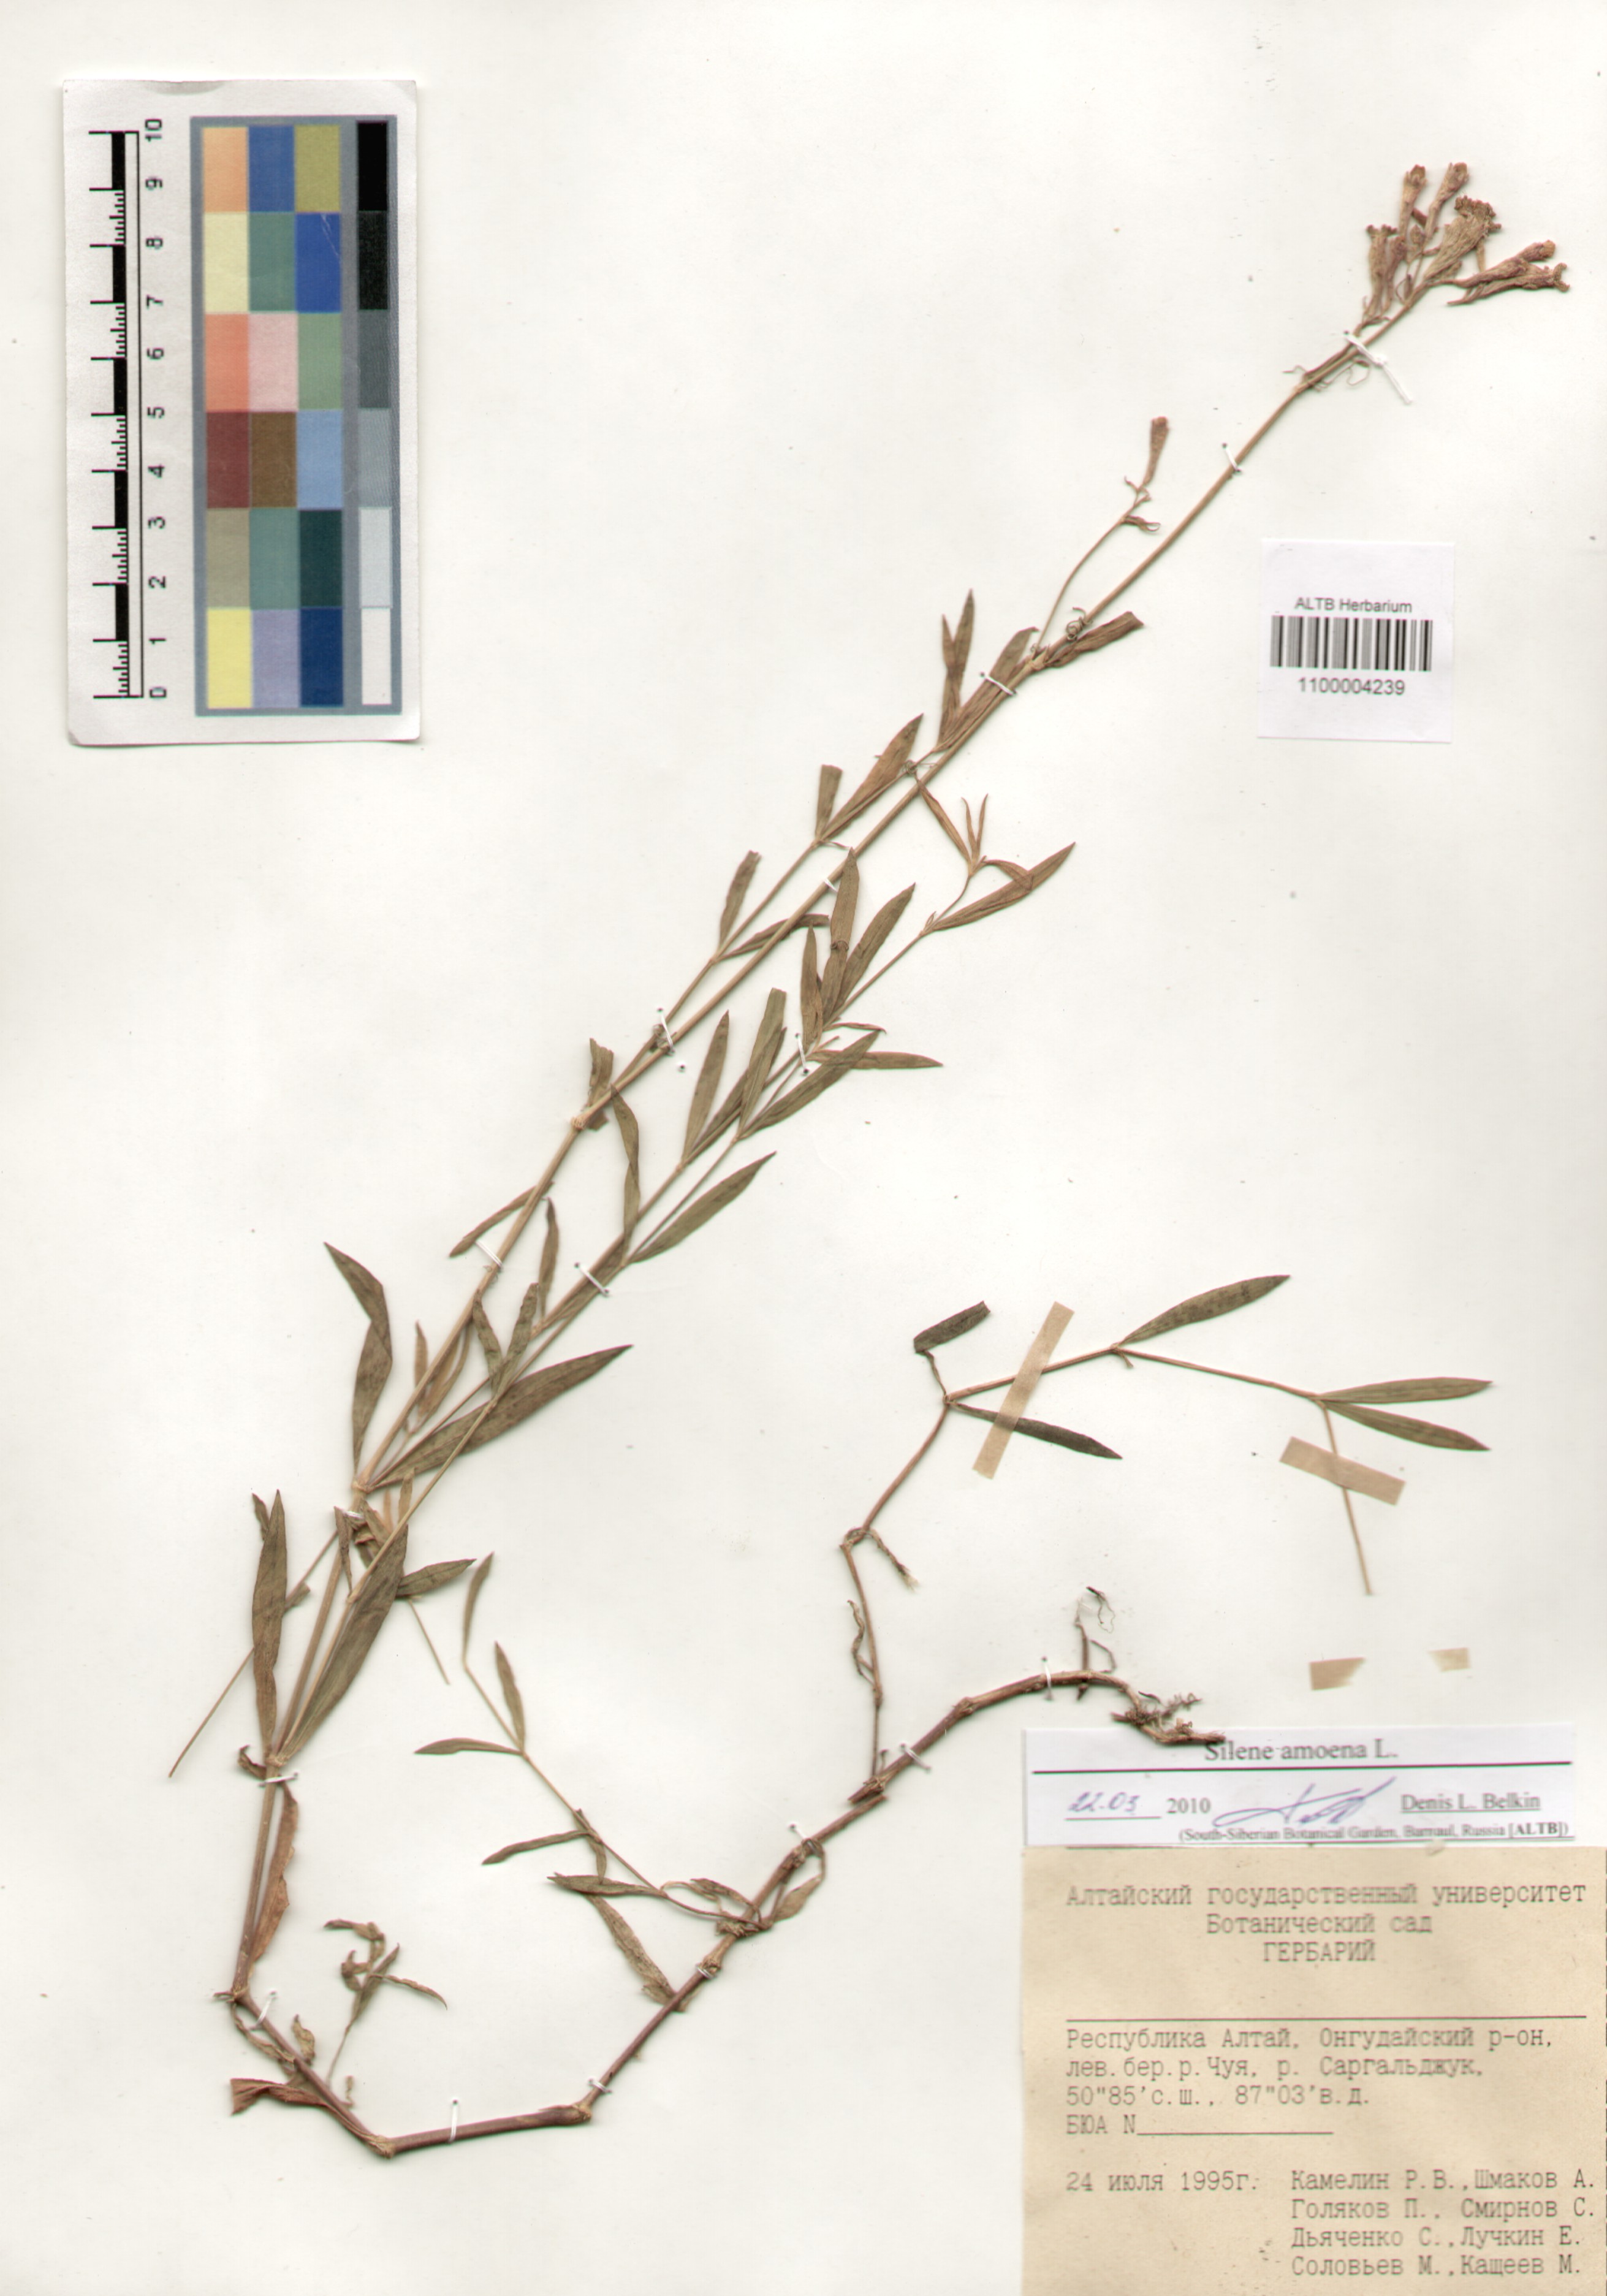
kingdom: Plantae
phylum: Tracheophyta
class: Magnoliopsida
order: Caryophyllales
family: Caryophyllaceae
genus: Silene
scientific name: Silene amoena
